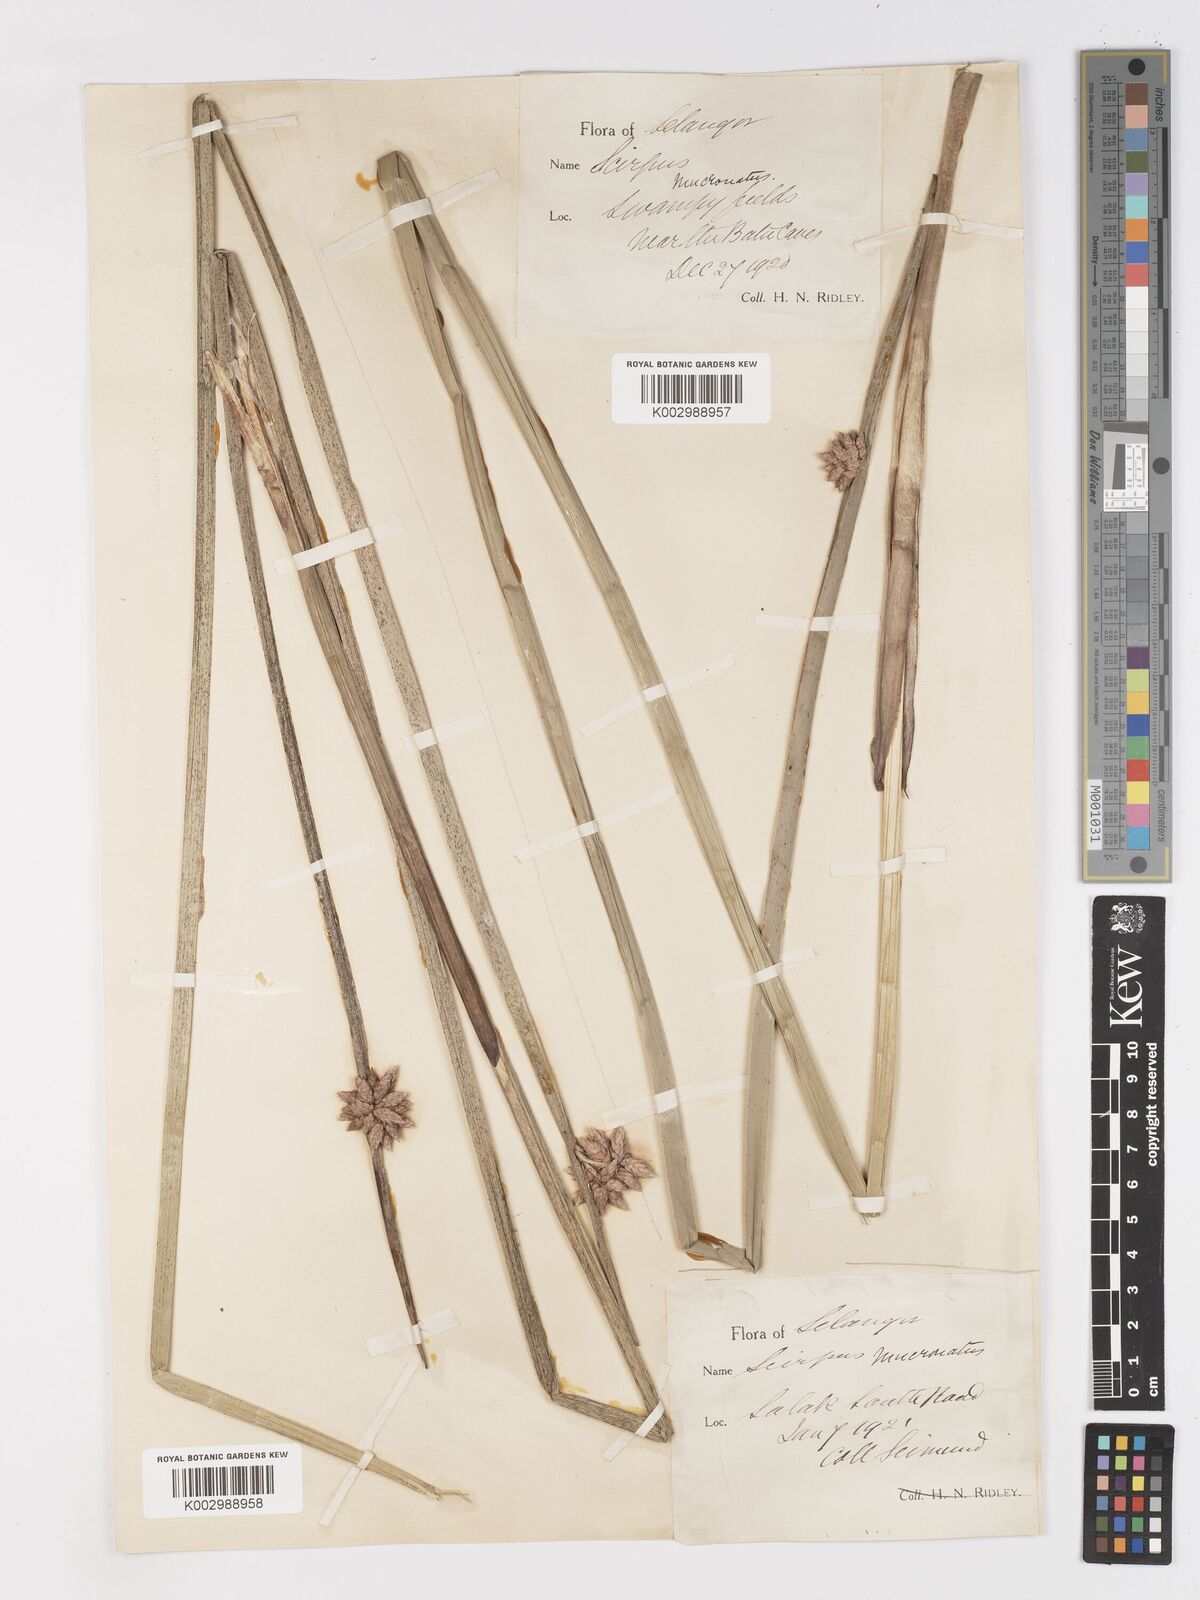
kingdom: Plantae
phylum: Tracheophyta
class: Liliopsida
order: Poales
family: Cyperaceae
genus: Schoenoplectiella
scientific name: Schoenoplectiella mucronata
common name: Bog bulrush
